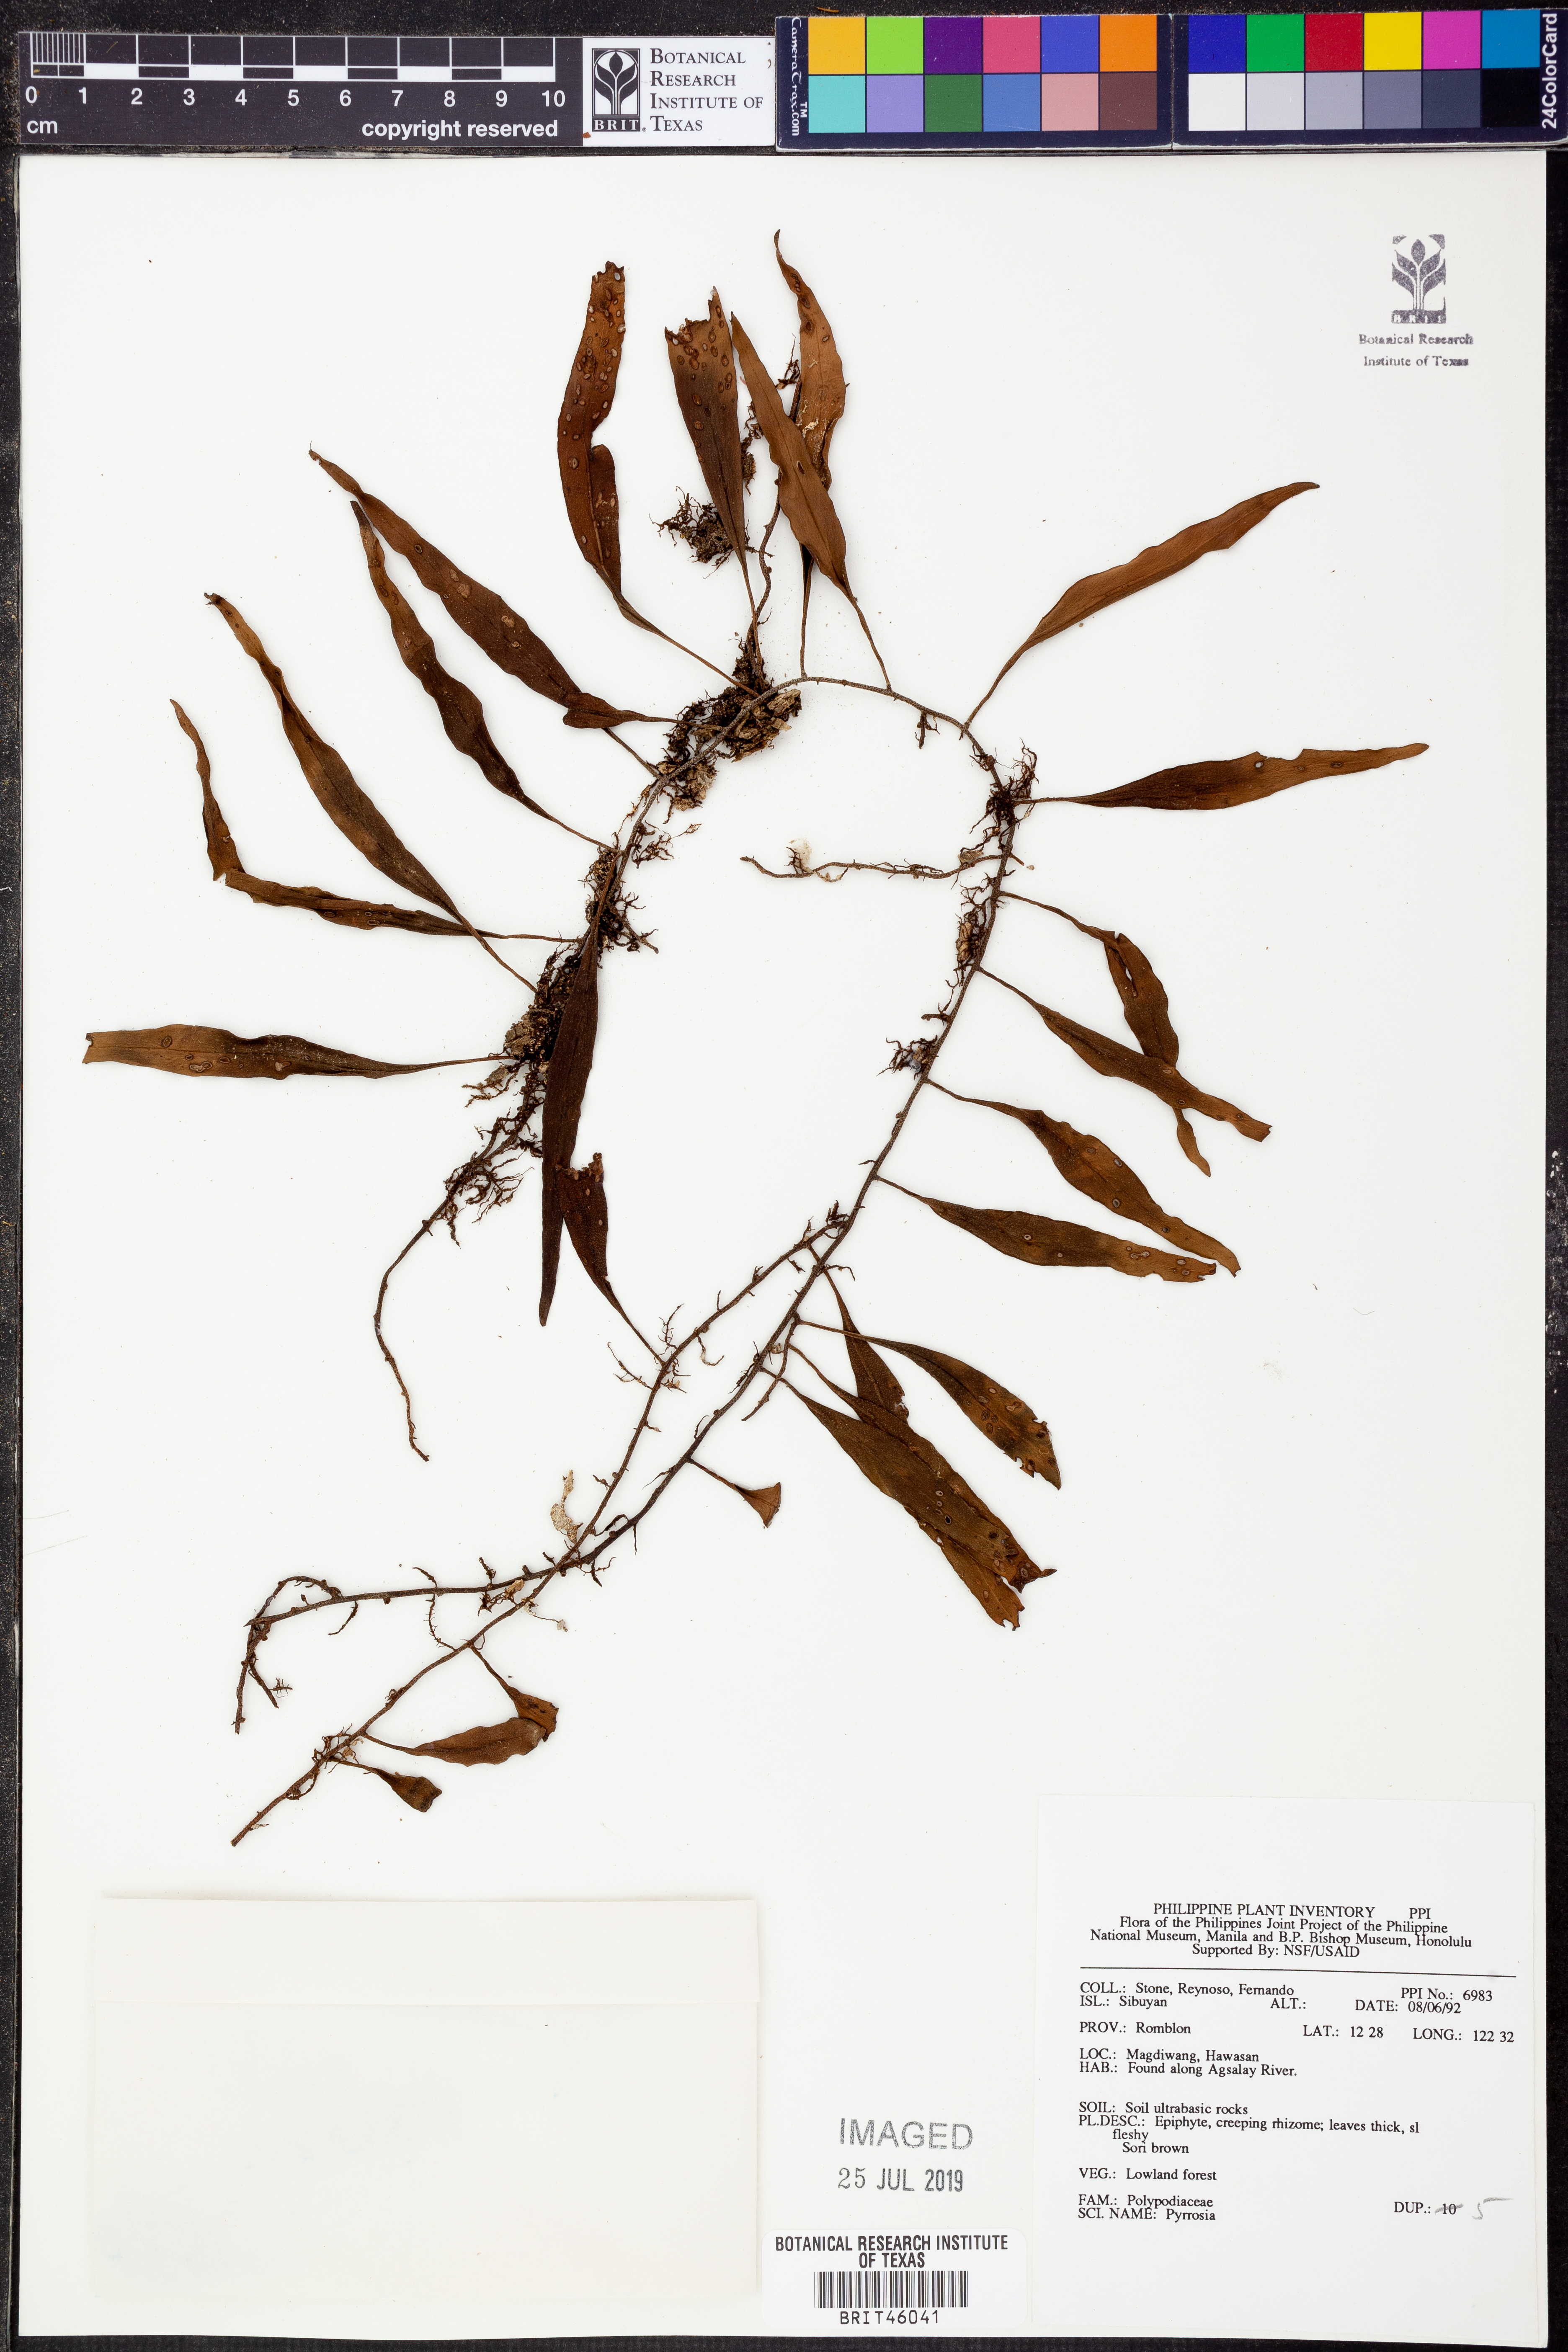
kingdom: Plantae
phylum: Tracheophyta
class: Polypodiopsida
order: Polypodiales
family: Polypodiaceae
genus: Pyrrosia
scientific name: Pyrrosia
